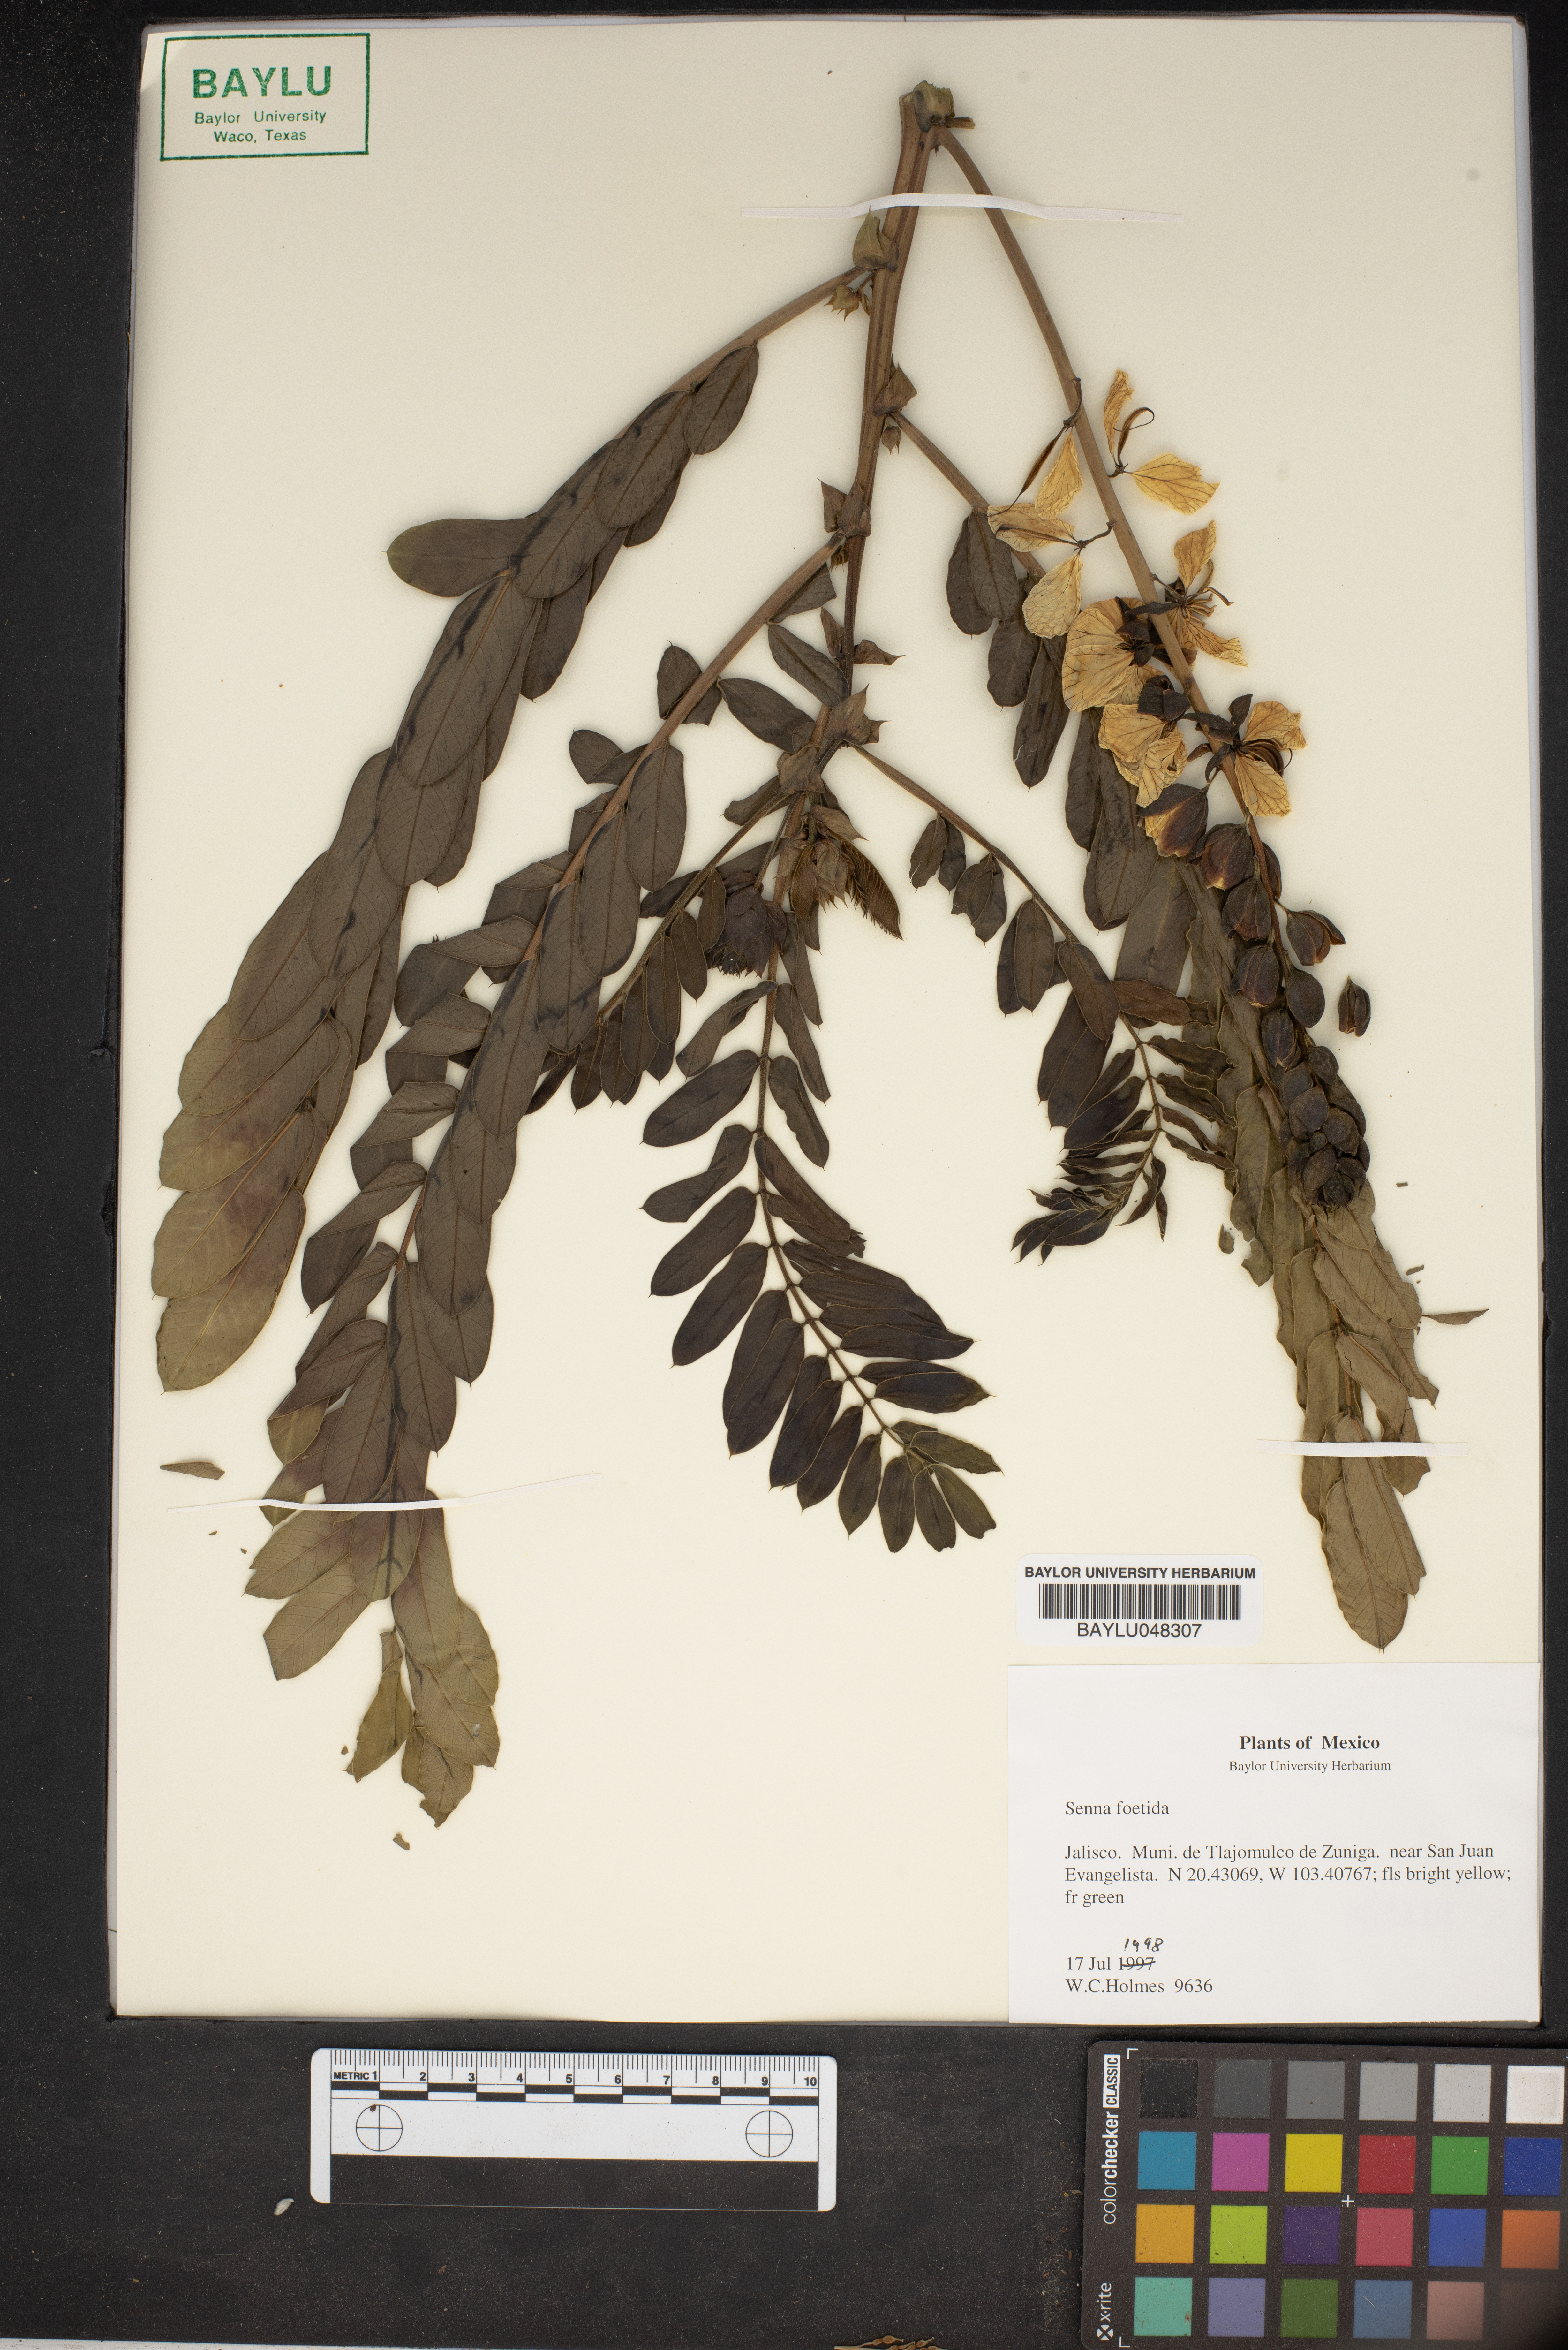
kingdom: Plantae
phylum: Tracheophyta
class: Magnoliopsida
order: Fabales
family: Fabaceae
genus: Senna
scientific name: Senna
